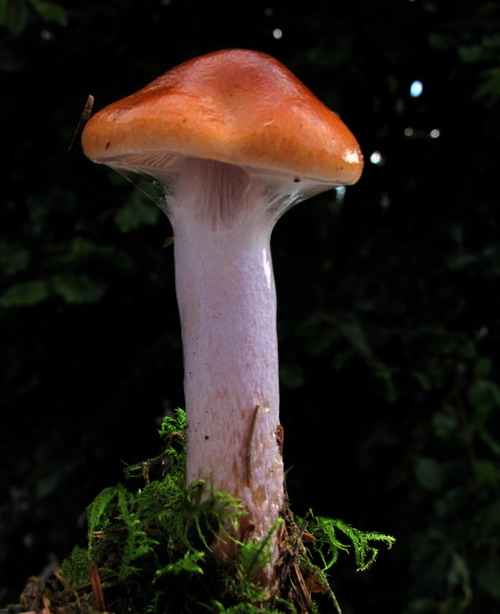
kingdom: Fungi
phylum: Basidiomycota
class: Agaricomycetes
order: Agaricales
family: Cortinariaceae
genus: Cortinarius
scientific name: Cortinarius stillatitius
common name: honningduftende slørhat
